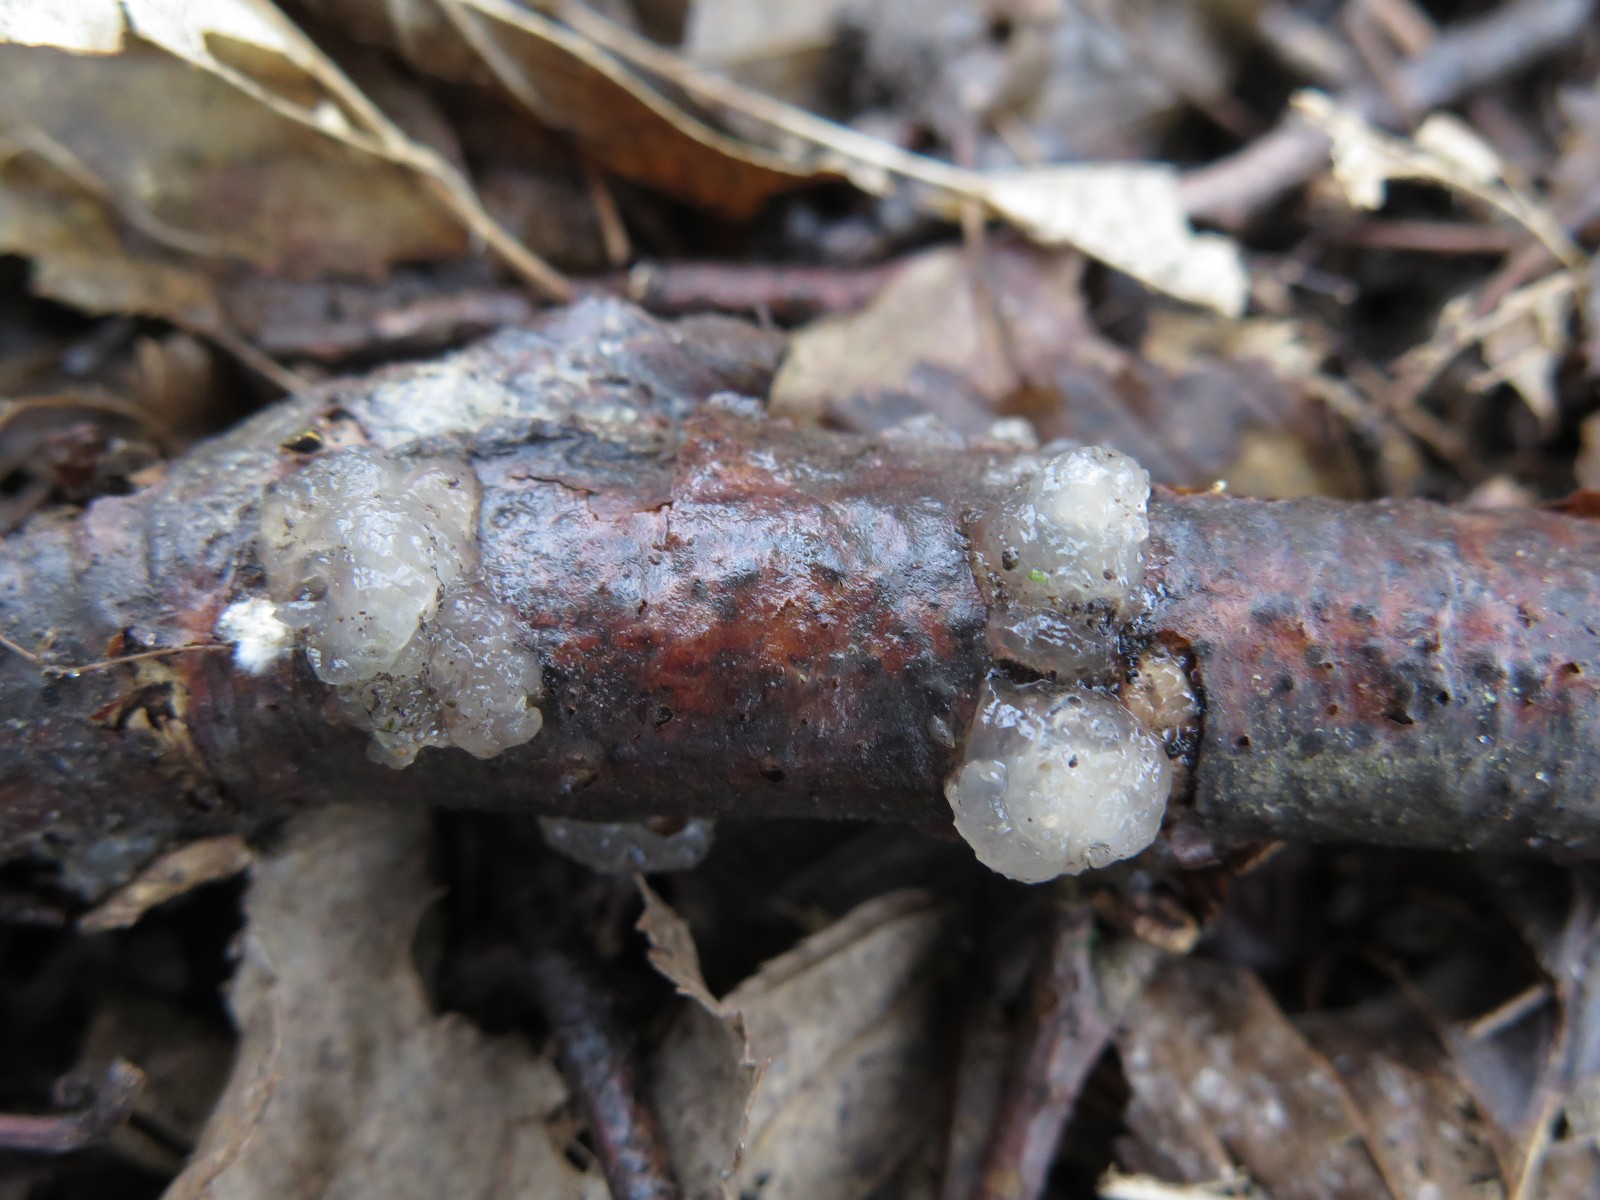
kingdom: Fungi
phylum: Basidiomycota
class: Agaricomycetes
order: Auriculariales
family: Hyaloriaceae
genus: Myxarium
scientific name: Myxarium nucleatum
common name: klar bævretop
